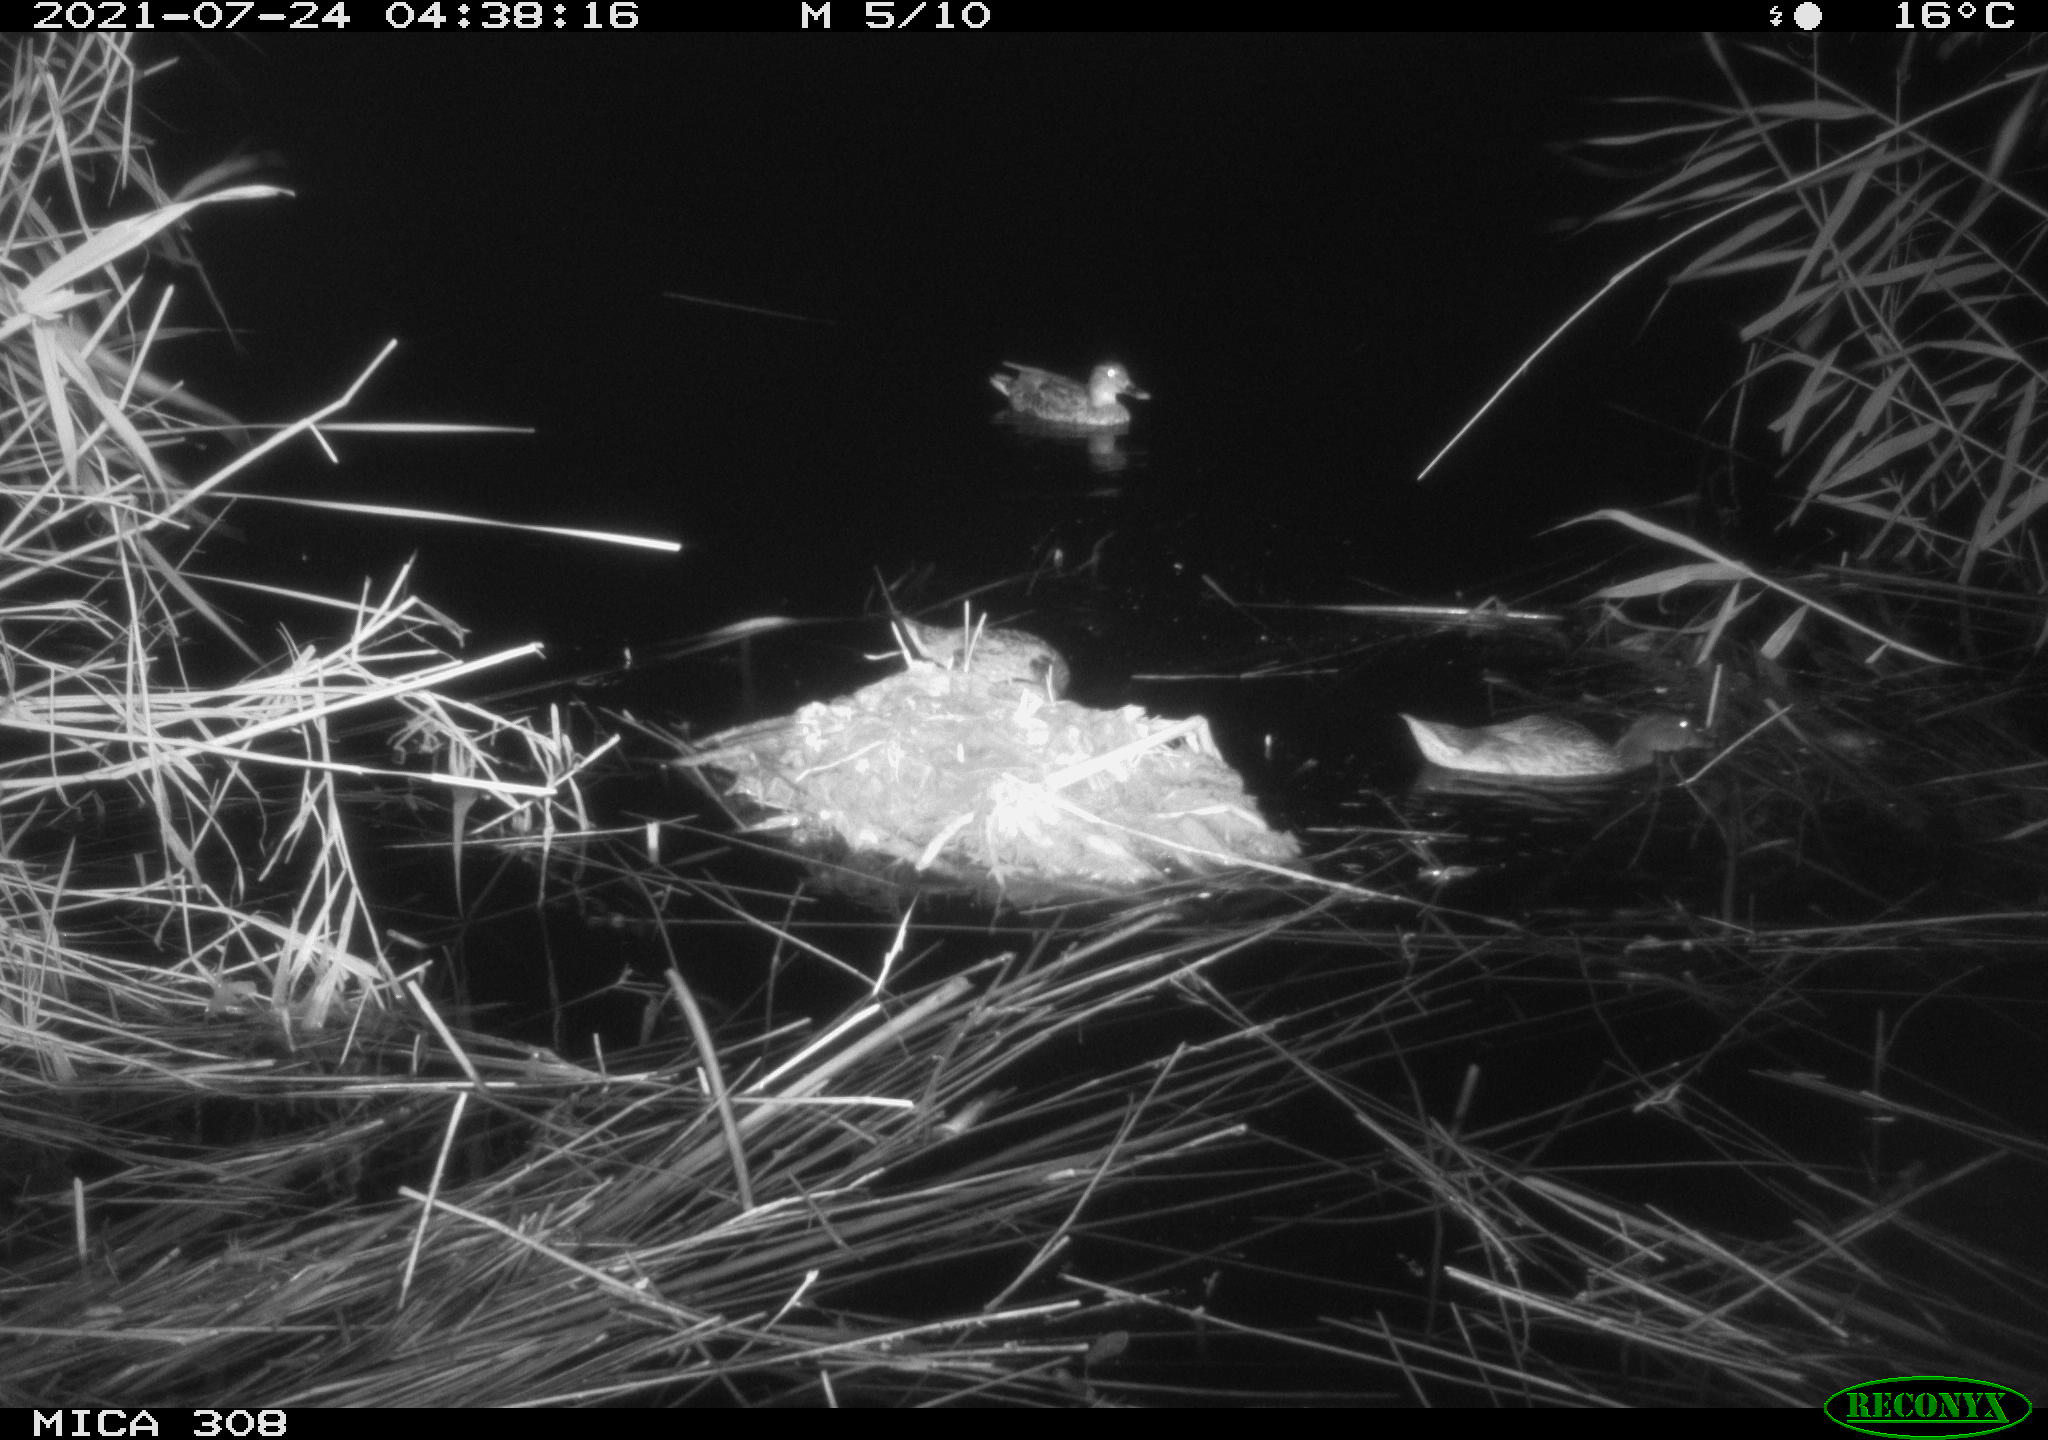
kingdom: Animalia
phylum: Chordata
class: Aves
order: Anseriformes
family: Anatidae
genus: Anas
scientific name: Anas platyrhynchos
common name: Mallard
